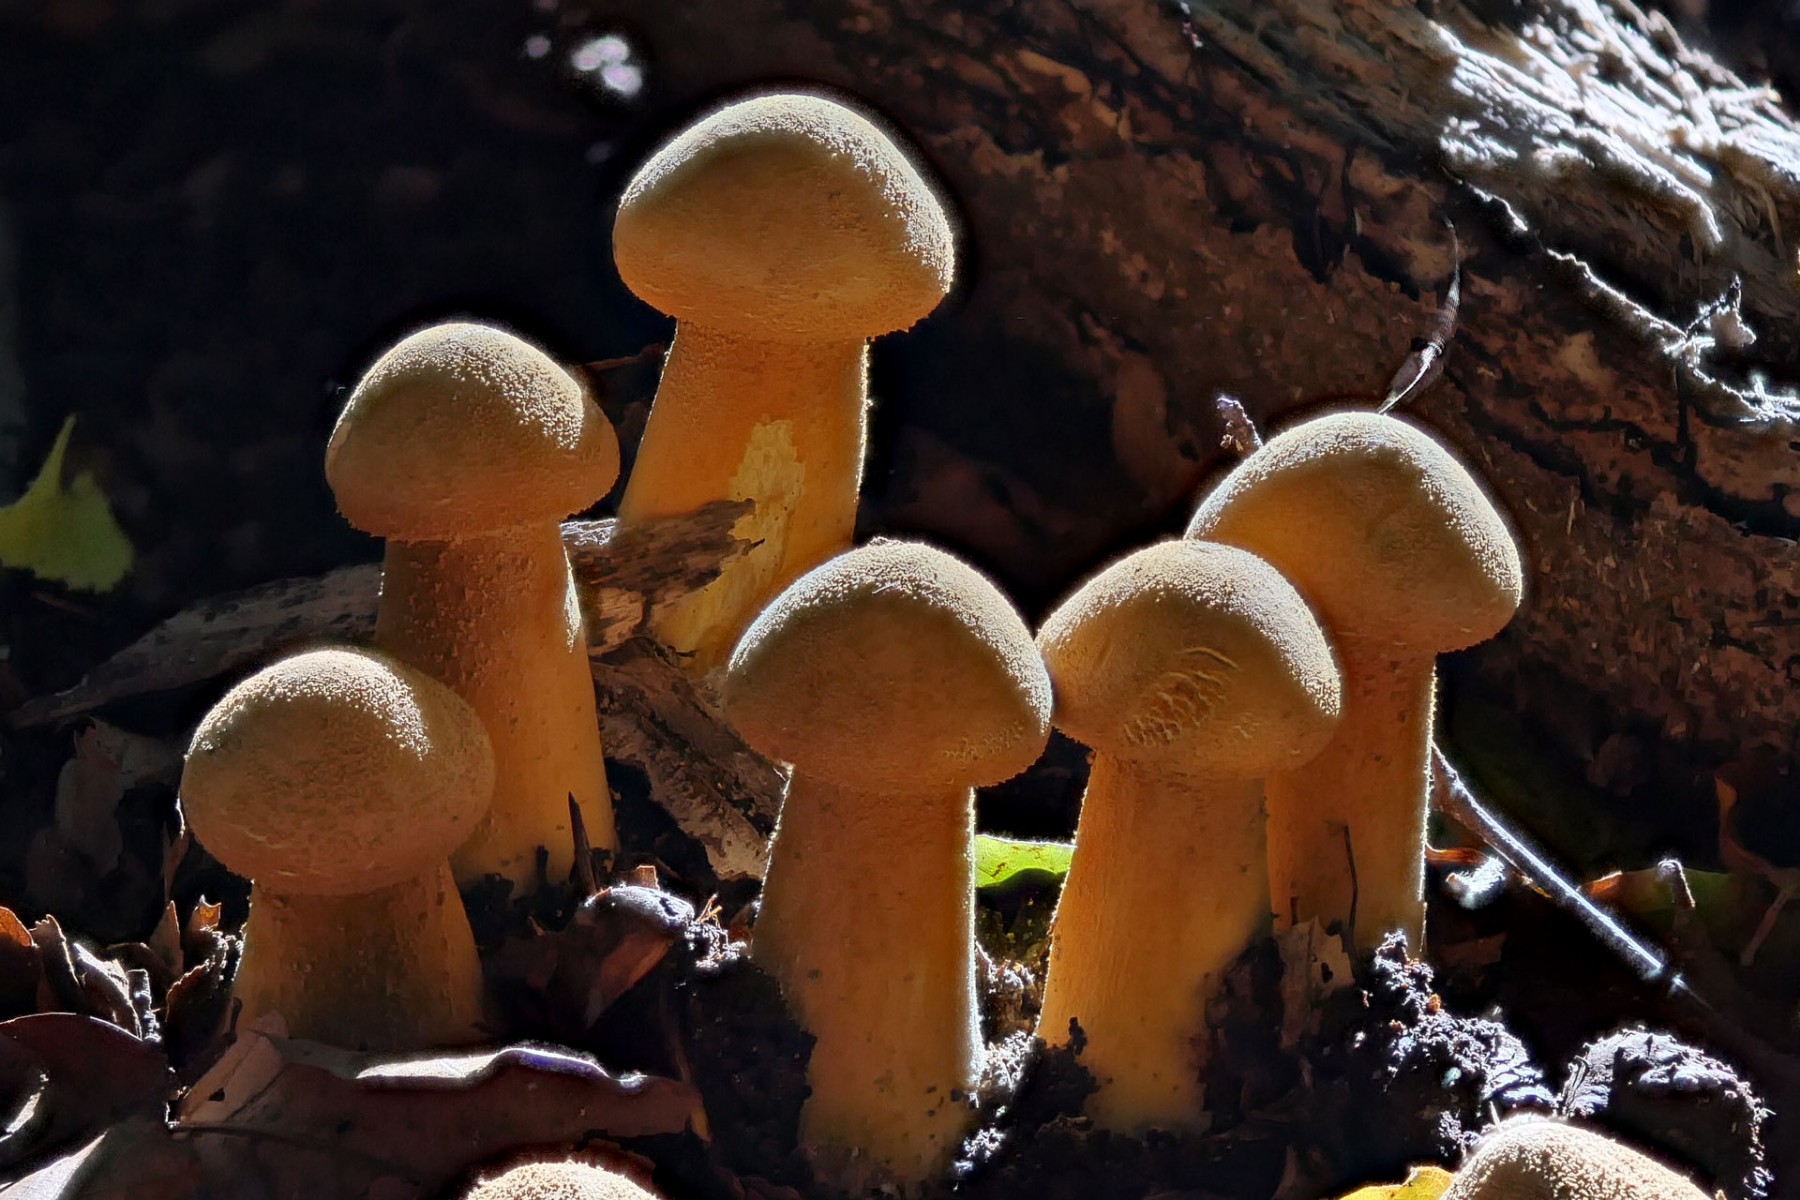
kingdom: Fungi
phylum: Basidiomycota
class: Agaricomycetes
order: Agaricales
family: Tricholomataceae
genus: Phaeolepiota
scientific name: Phaeolepiota aurea
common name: gyldenhat
